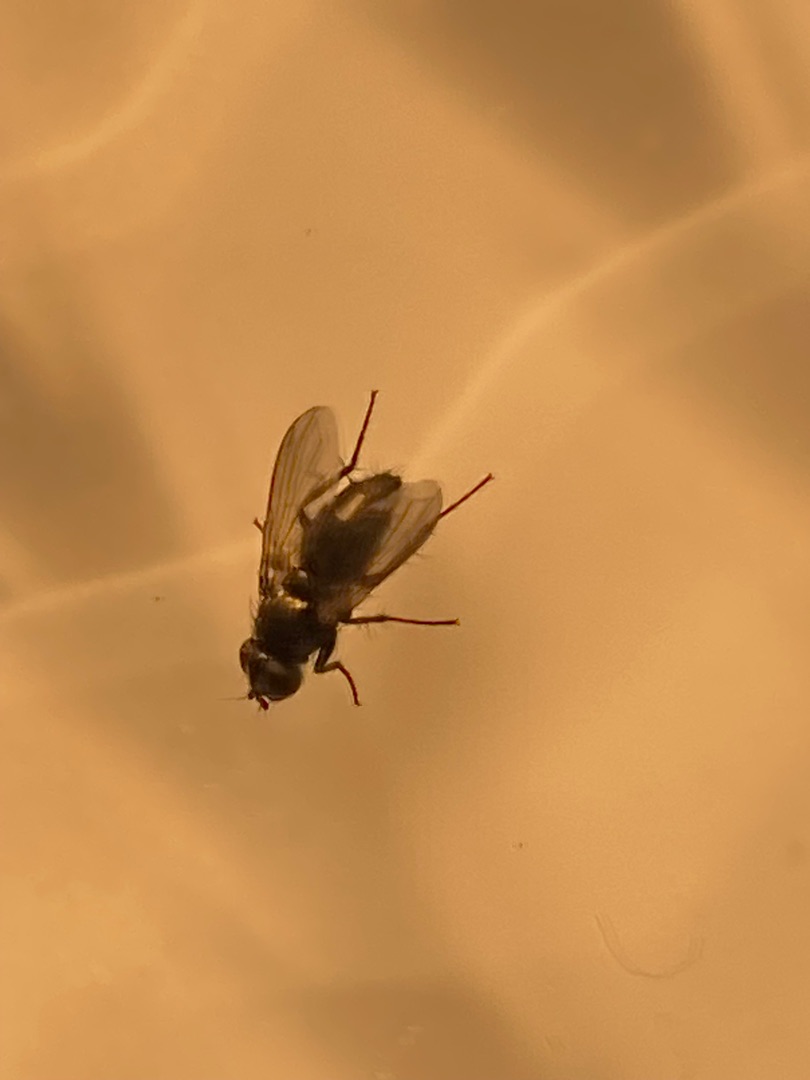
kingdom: Animalia
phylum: Arthropoda
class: Insecta
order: Diptera
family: Calliphoridae
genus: Rhinophora
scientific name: Rhinophora lepida
